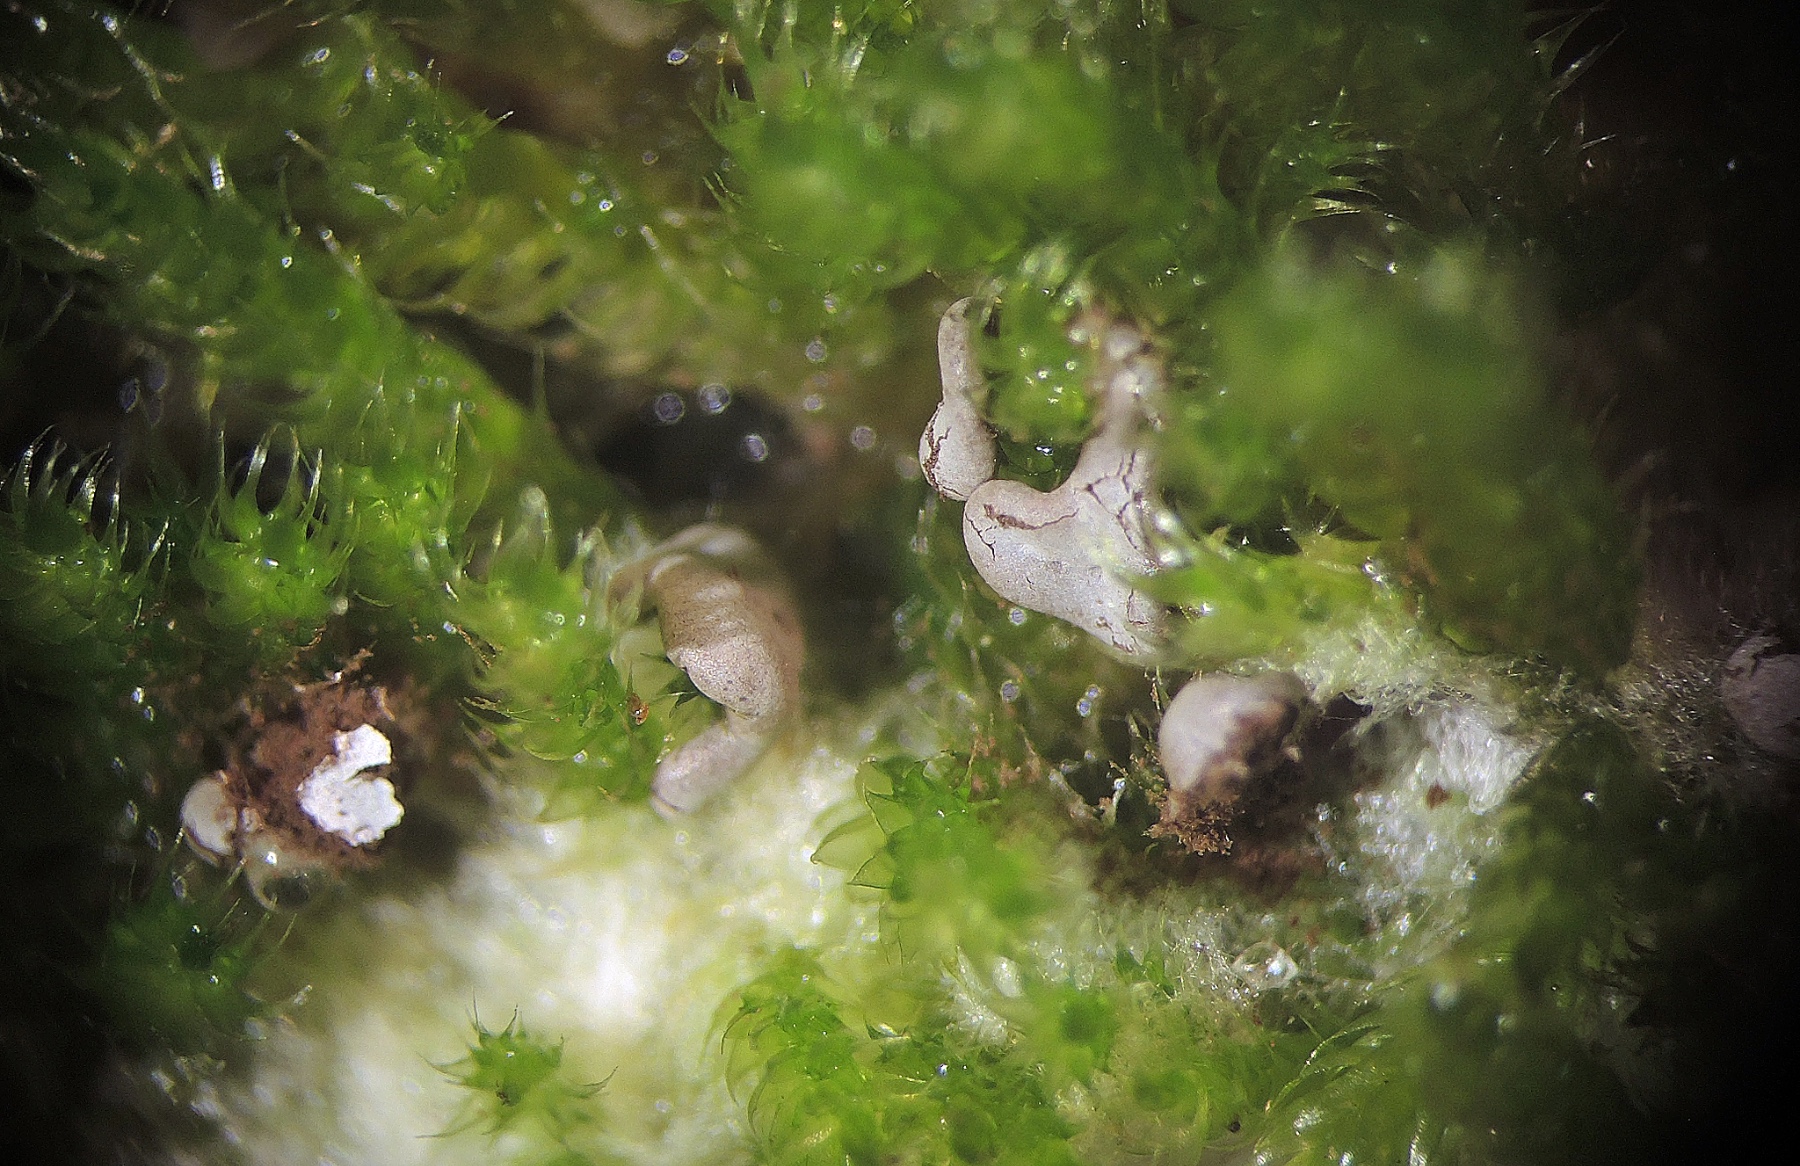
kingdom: Protozoa
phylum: Mycetozoa
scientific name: Mycetozoa
